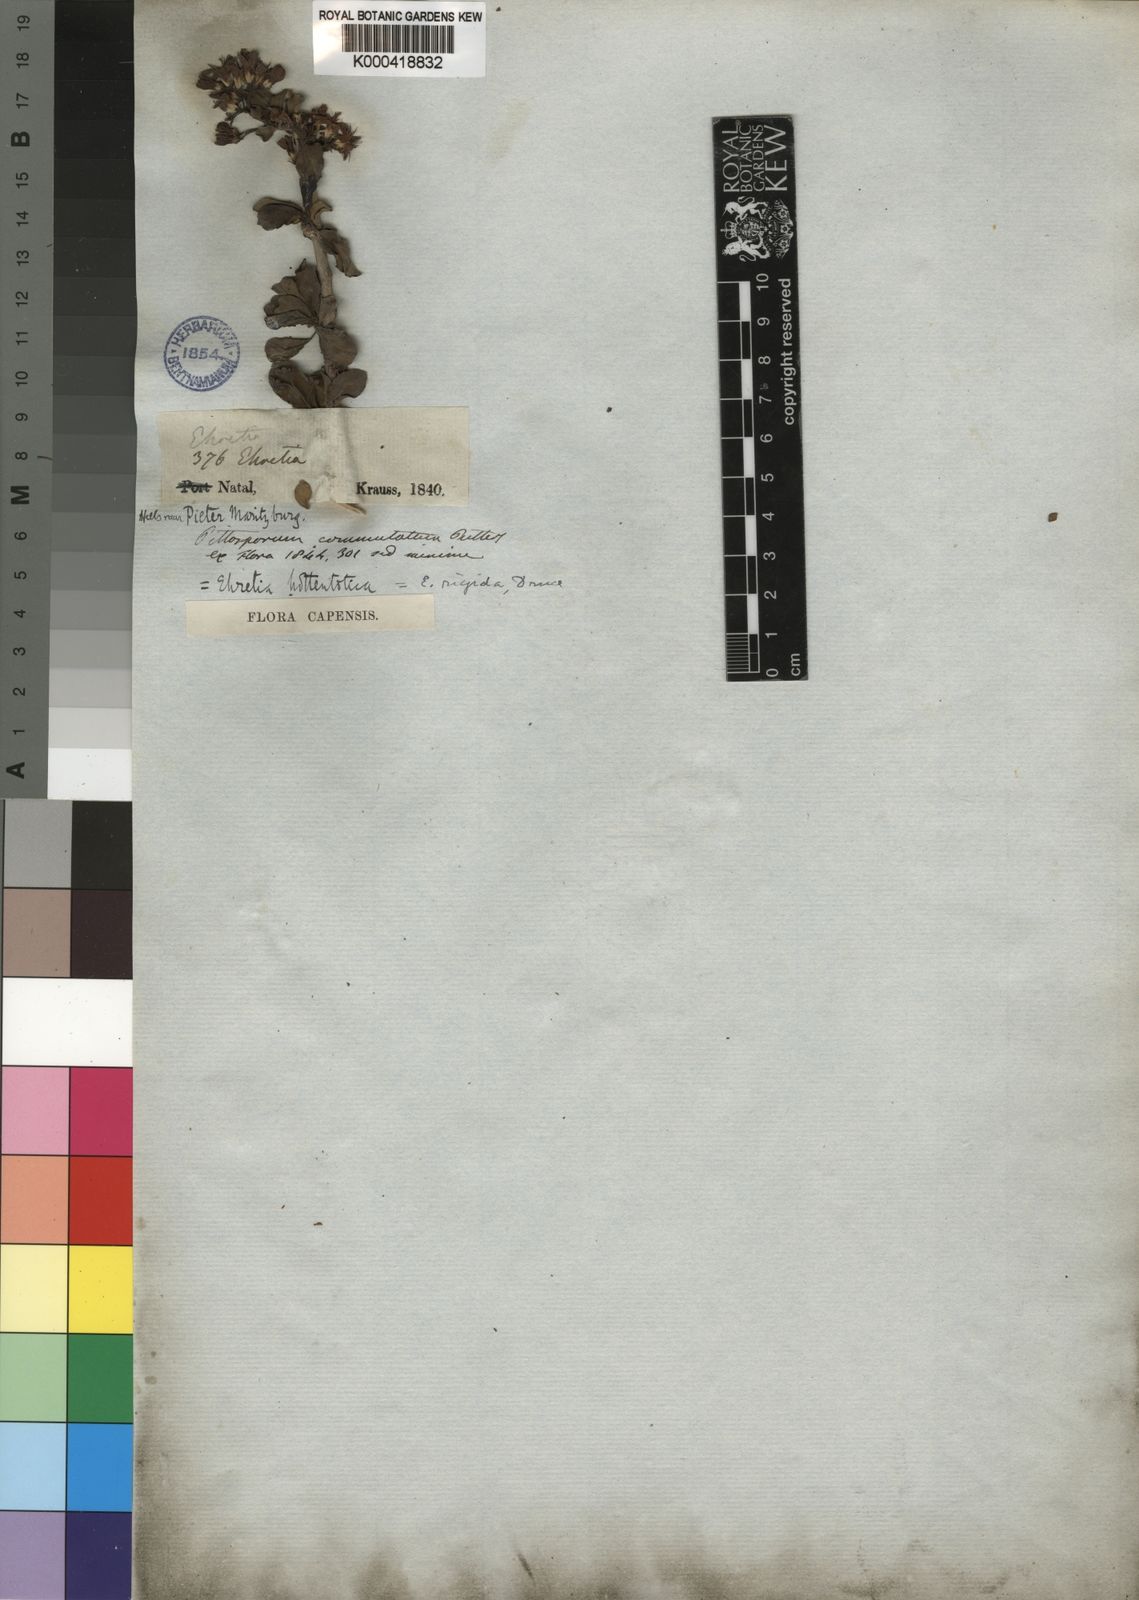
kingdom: Plantae
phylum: Tracheophyta
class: Magnoliopsida
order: Boraginales
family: Ehretiaceae
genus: Ehretia
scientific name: Ehretia rigida
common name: Cape lilac
